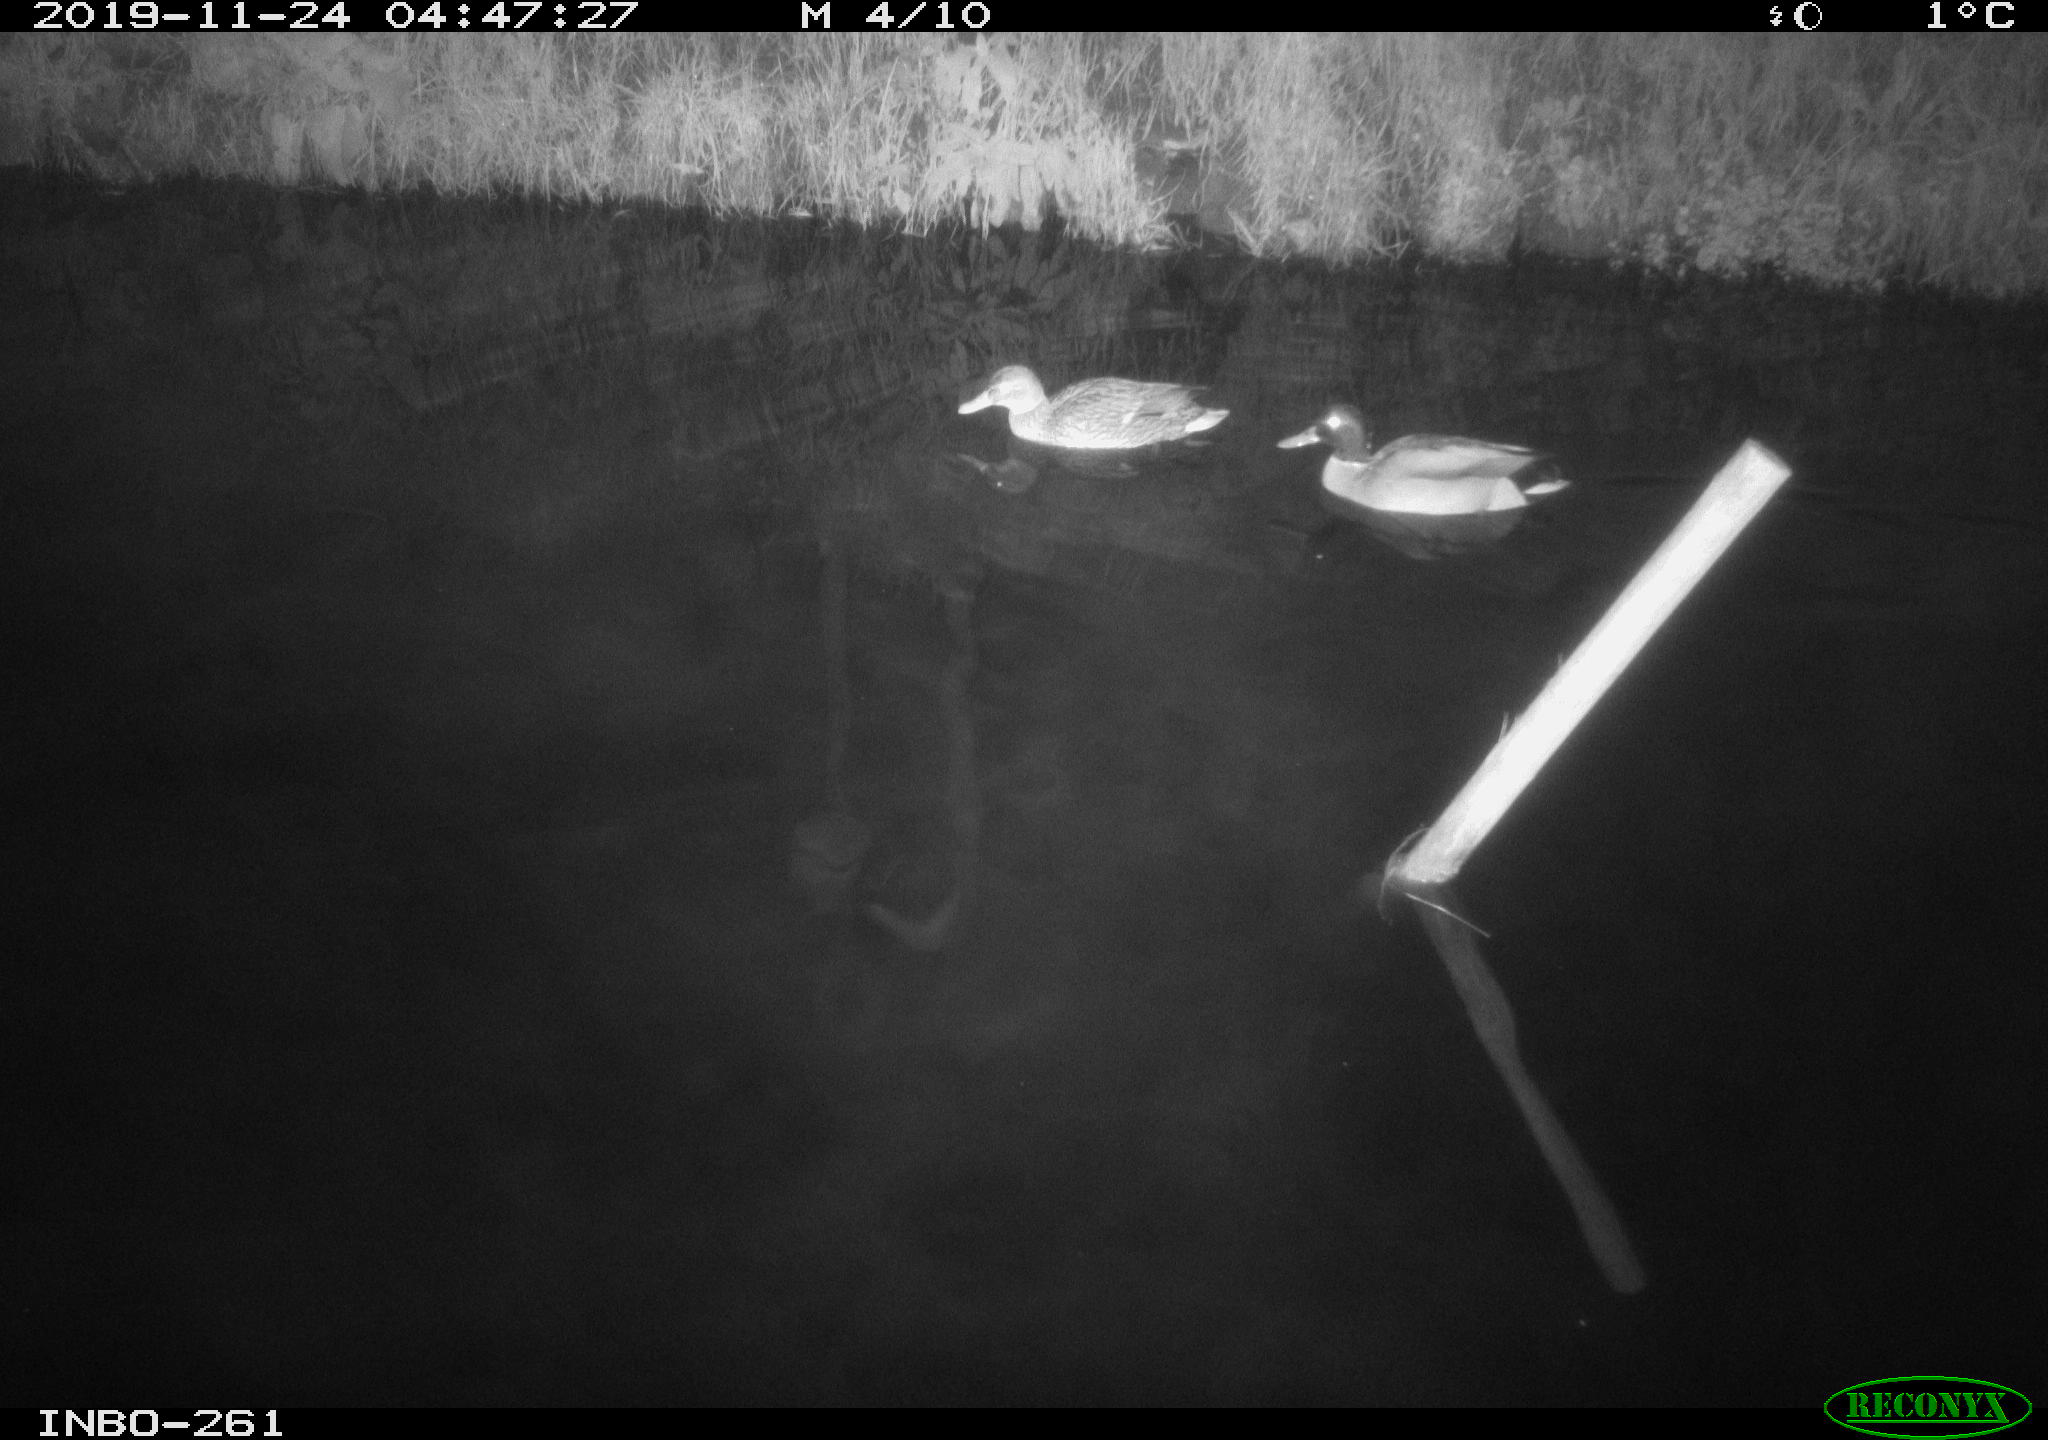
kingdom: Animalia
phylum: Chordata
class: Aves
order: Anseriformes
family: Anatidae
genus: Anas
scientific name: Anas platyrhynchos
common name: Mallard
